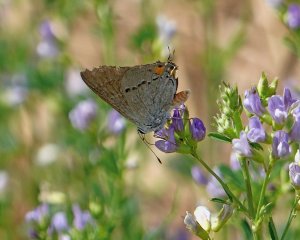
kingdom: Animalia
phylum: Arthropoda
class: Insecta
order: Lepidoptera
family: Lycaenidae
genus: Strymon
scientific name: Strymon melinus
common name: Gray Hairstreak
